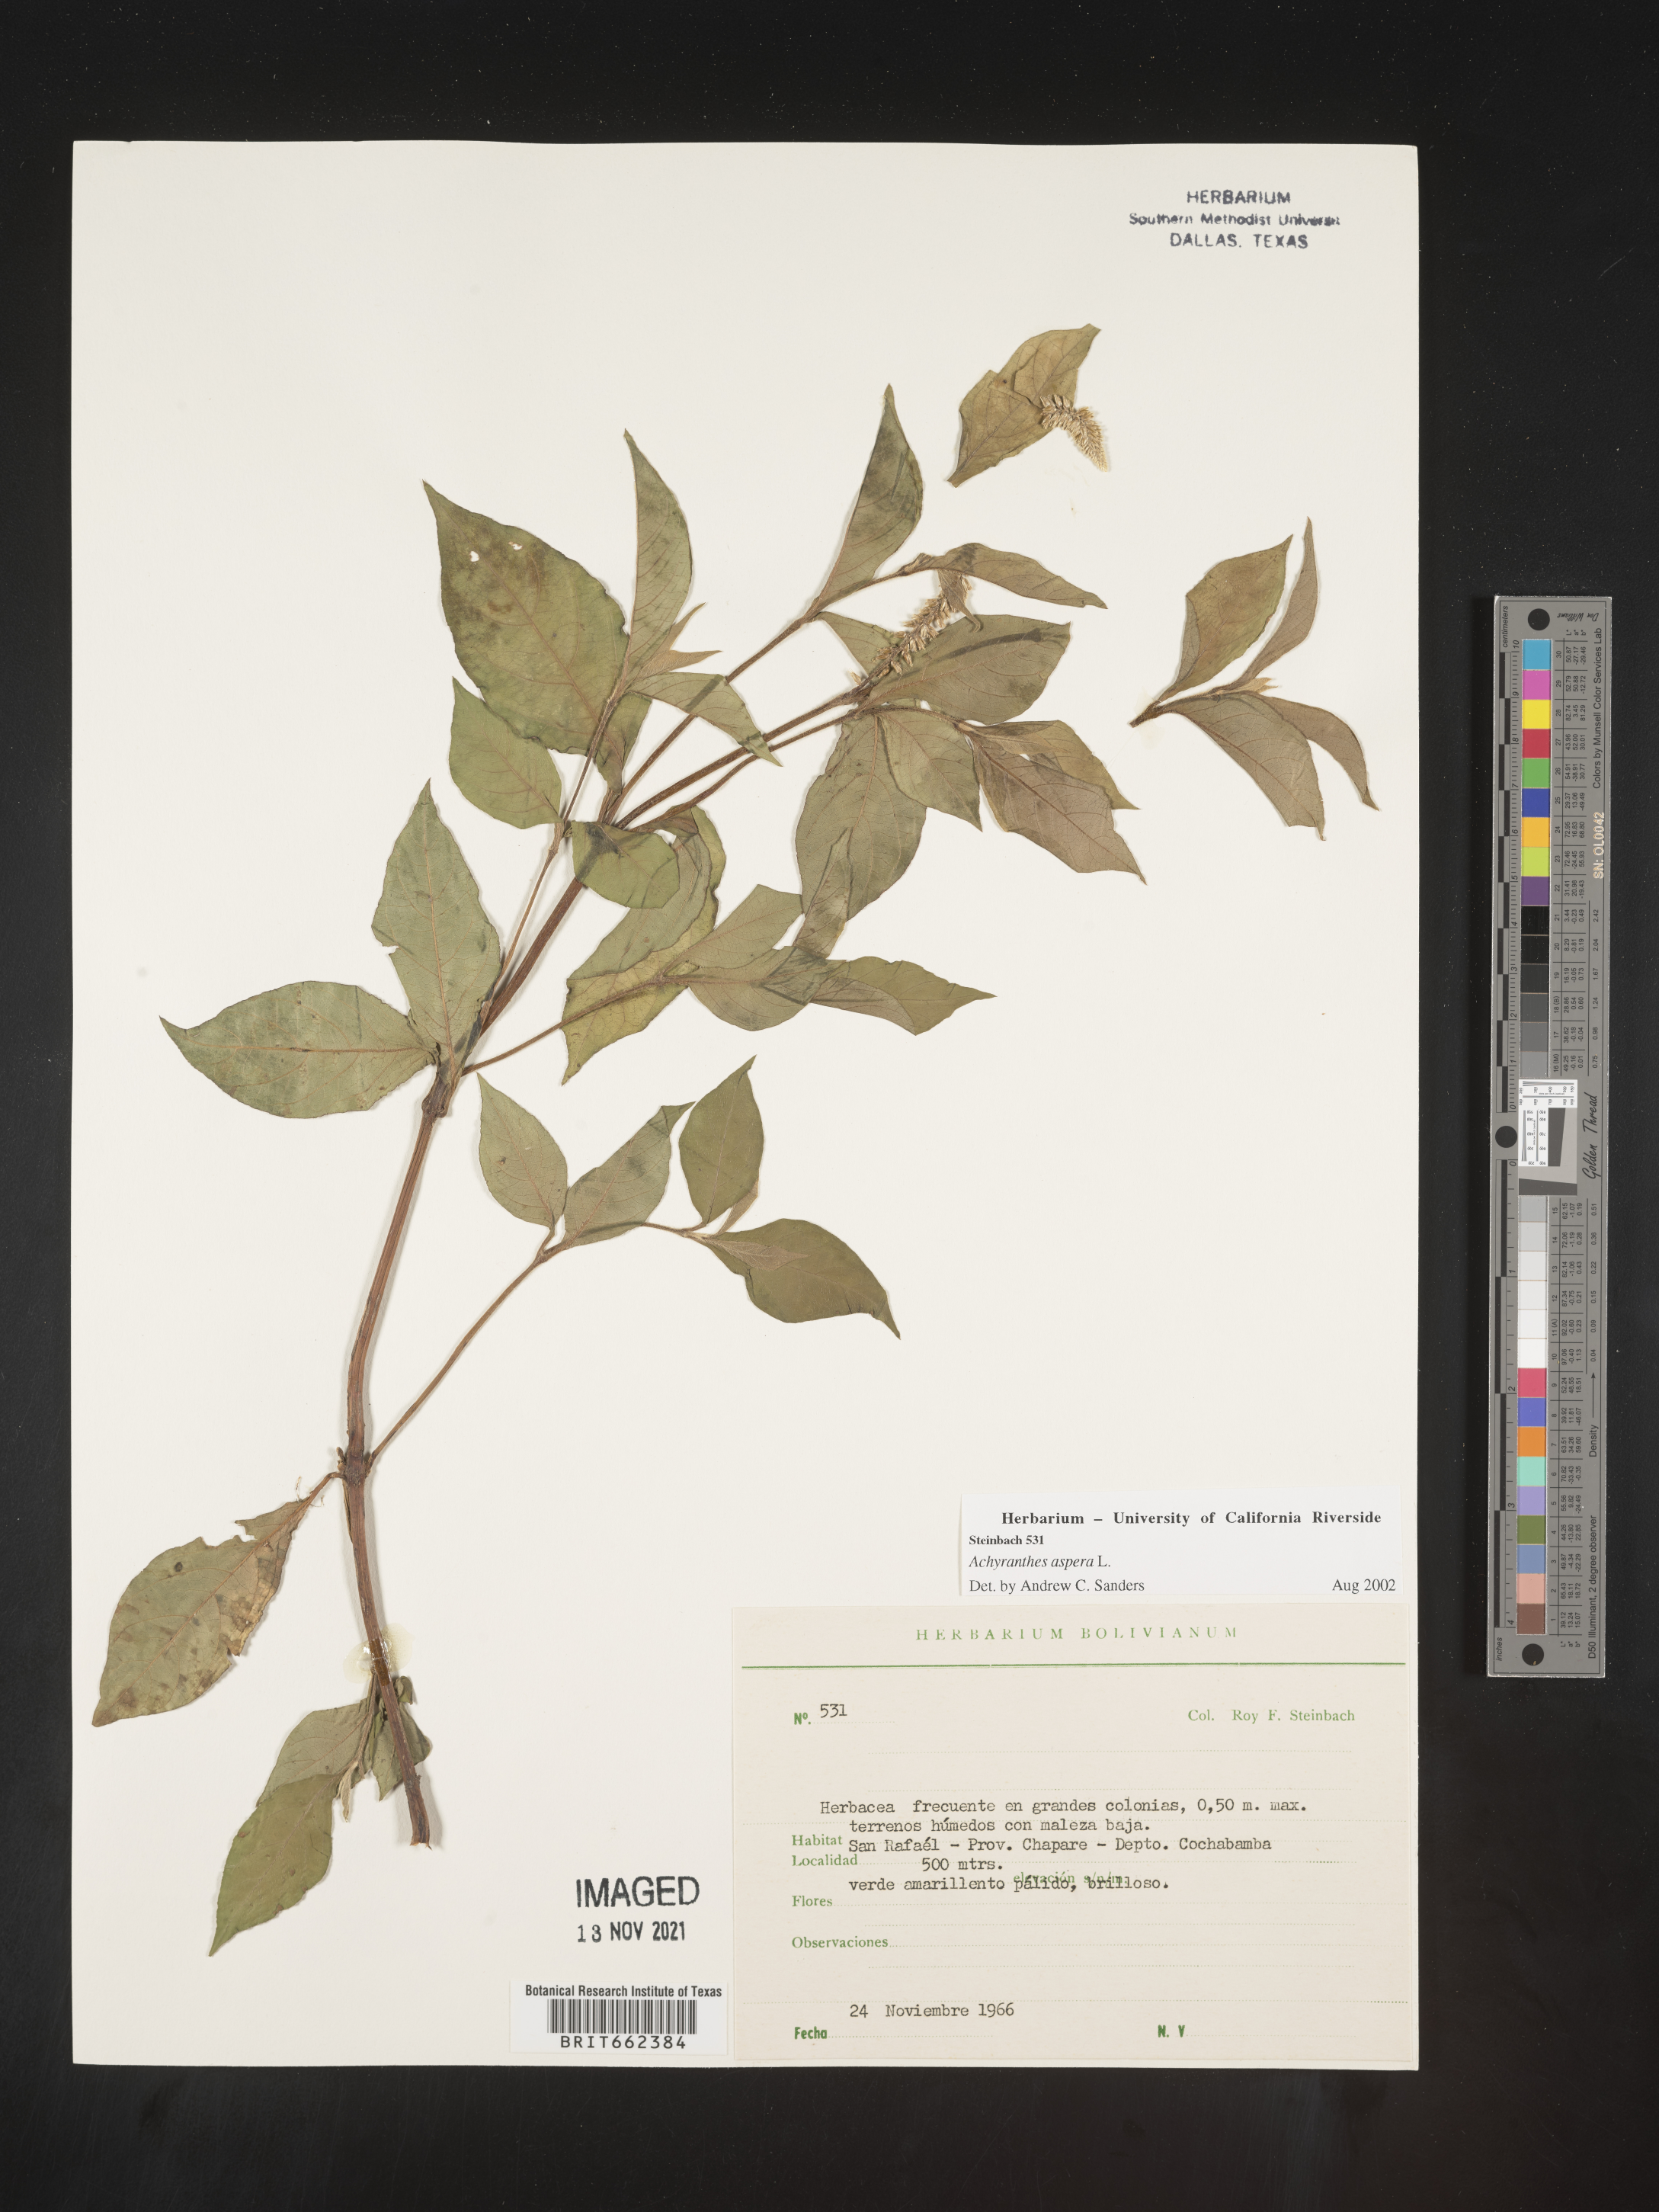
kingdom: Plantae
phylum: Tracheophyta
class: Magnoliopsida
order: Caryophyllales
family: Amaranthaceae
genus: Achyranthes
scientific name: Achyranthes
